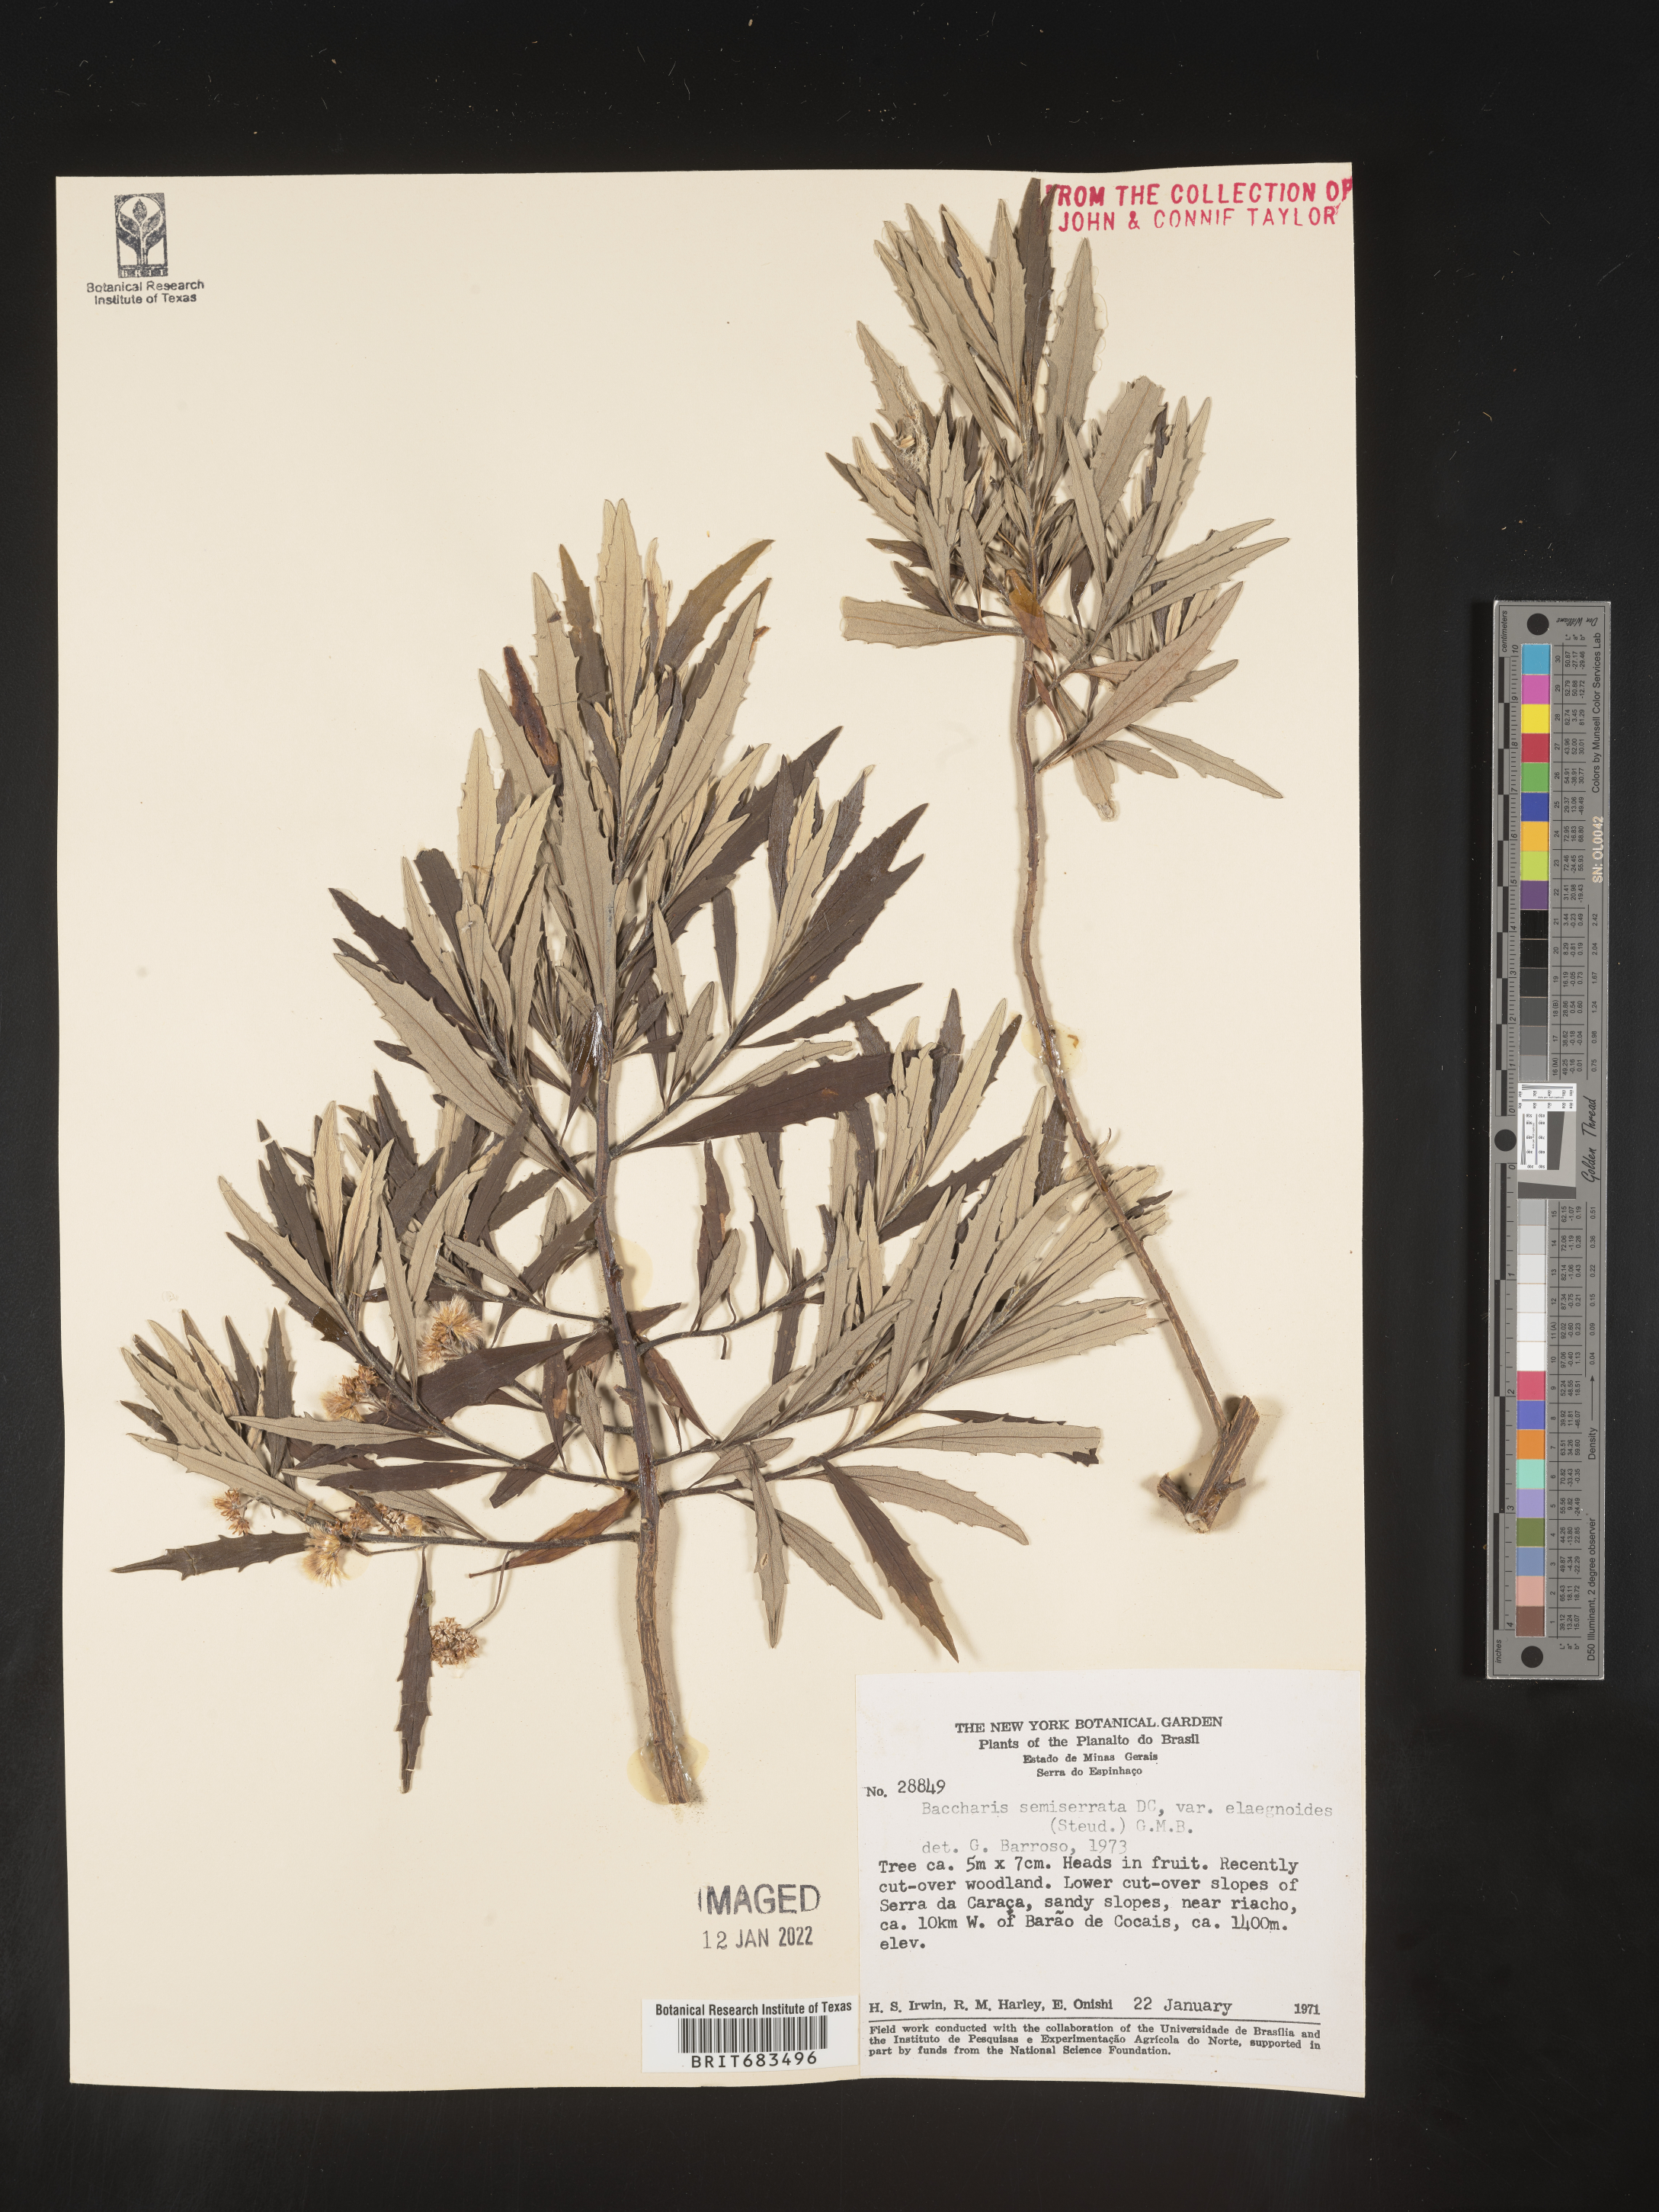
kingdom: Plantae
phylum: Tracheophyta
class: Magnoliopsida
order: Asterales
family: Asteraceae
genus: Baccharis
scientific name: Baccharis
